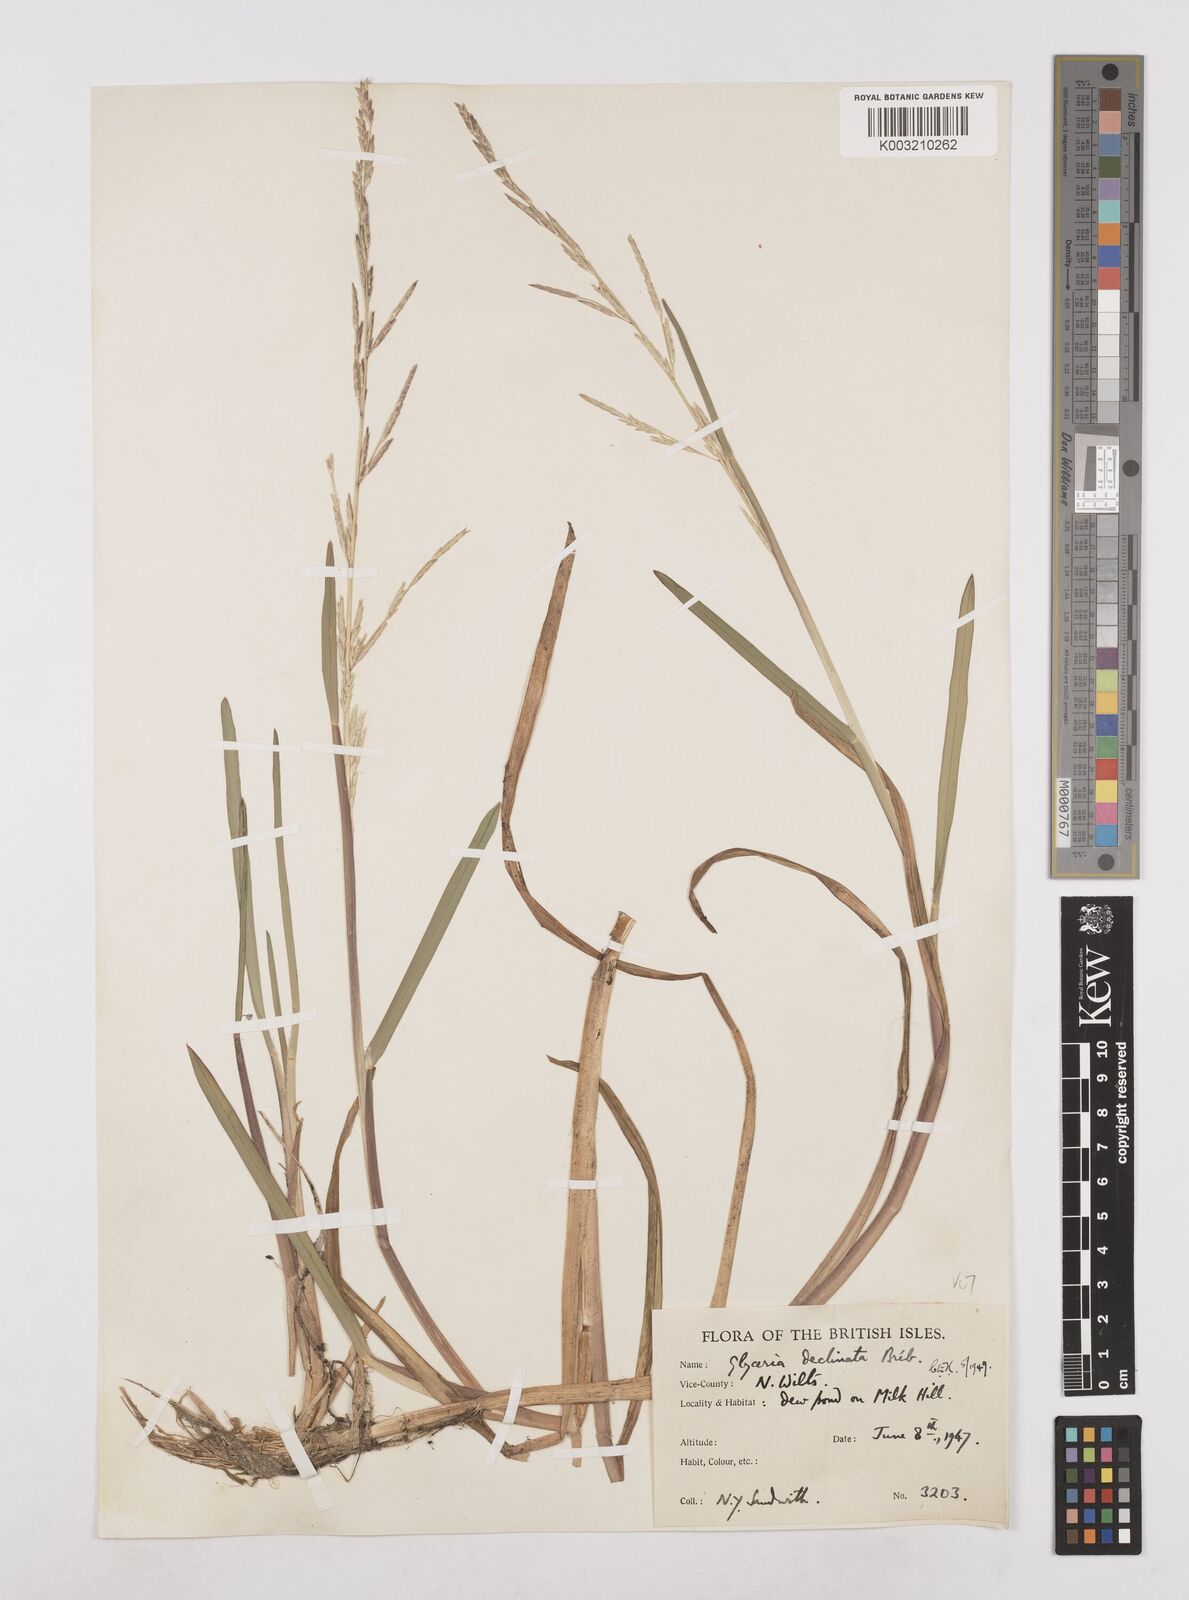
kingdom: Plantae
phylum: Tracheophyta
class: Liliopsida
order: Poales
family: Poaceae
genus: Glyceria
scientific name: Glyceria declinata
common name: Small sweet-grass
